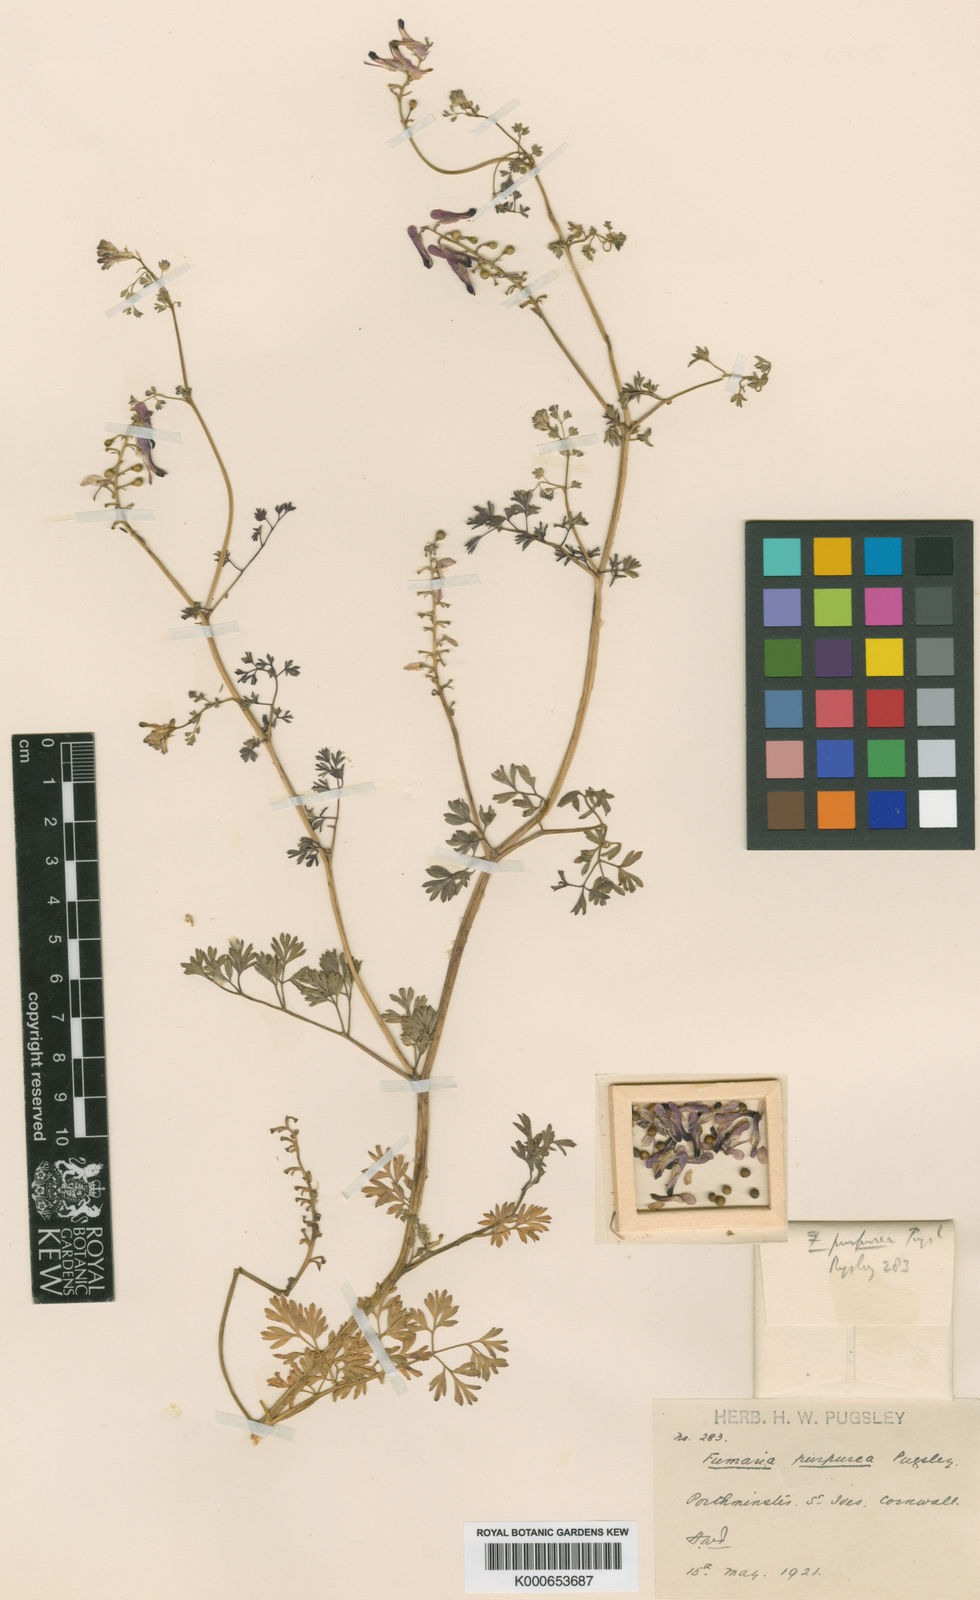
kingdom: Plantae
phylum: Tracheophyta
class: Magnoliopsida
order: Ranunculales
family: Papaveraceae
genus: Fumaria
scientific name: Fumaria purpurea
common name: Purple ramping-fumitory
